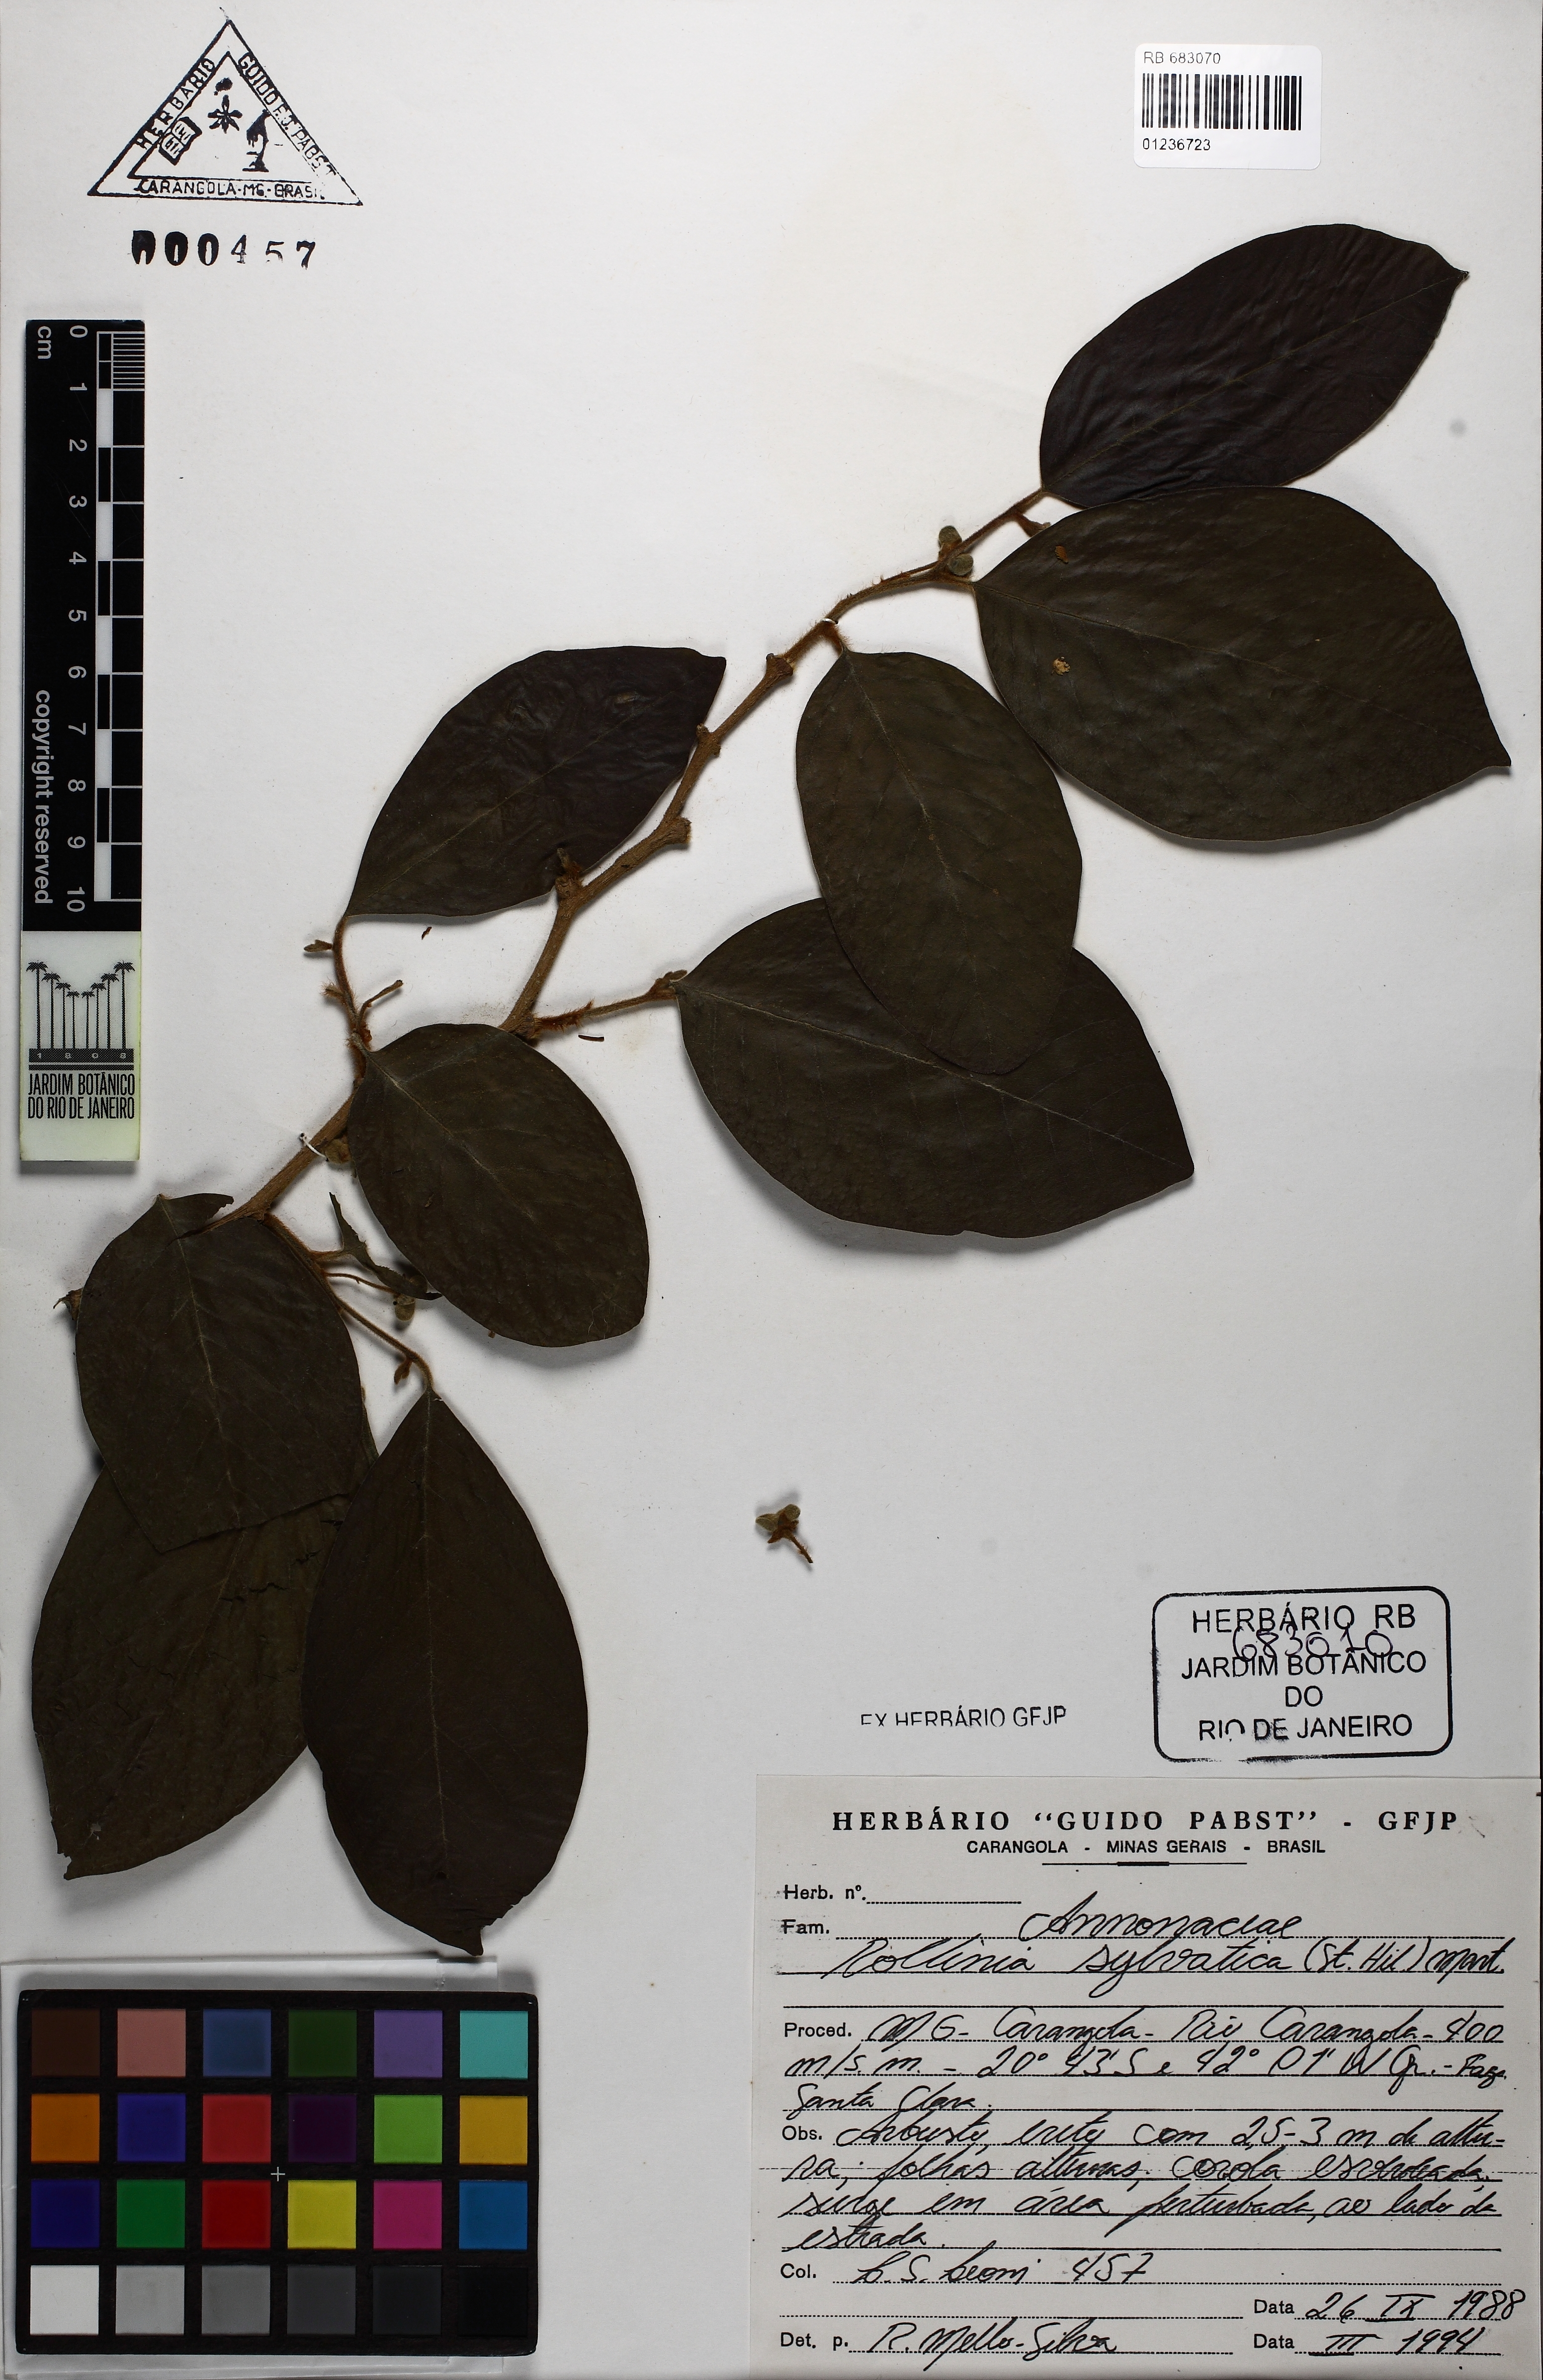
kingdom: Plantae
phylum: Tracheophyta
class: Magnoliopsida
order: Magnoliales
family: Annonaceae
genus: Annona
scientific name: Annona sylvatica
